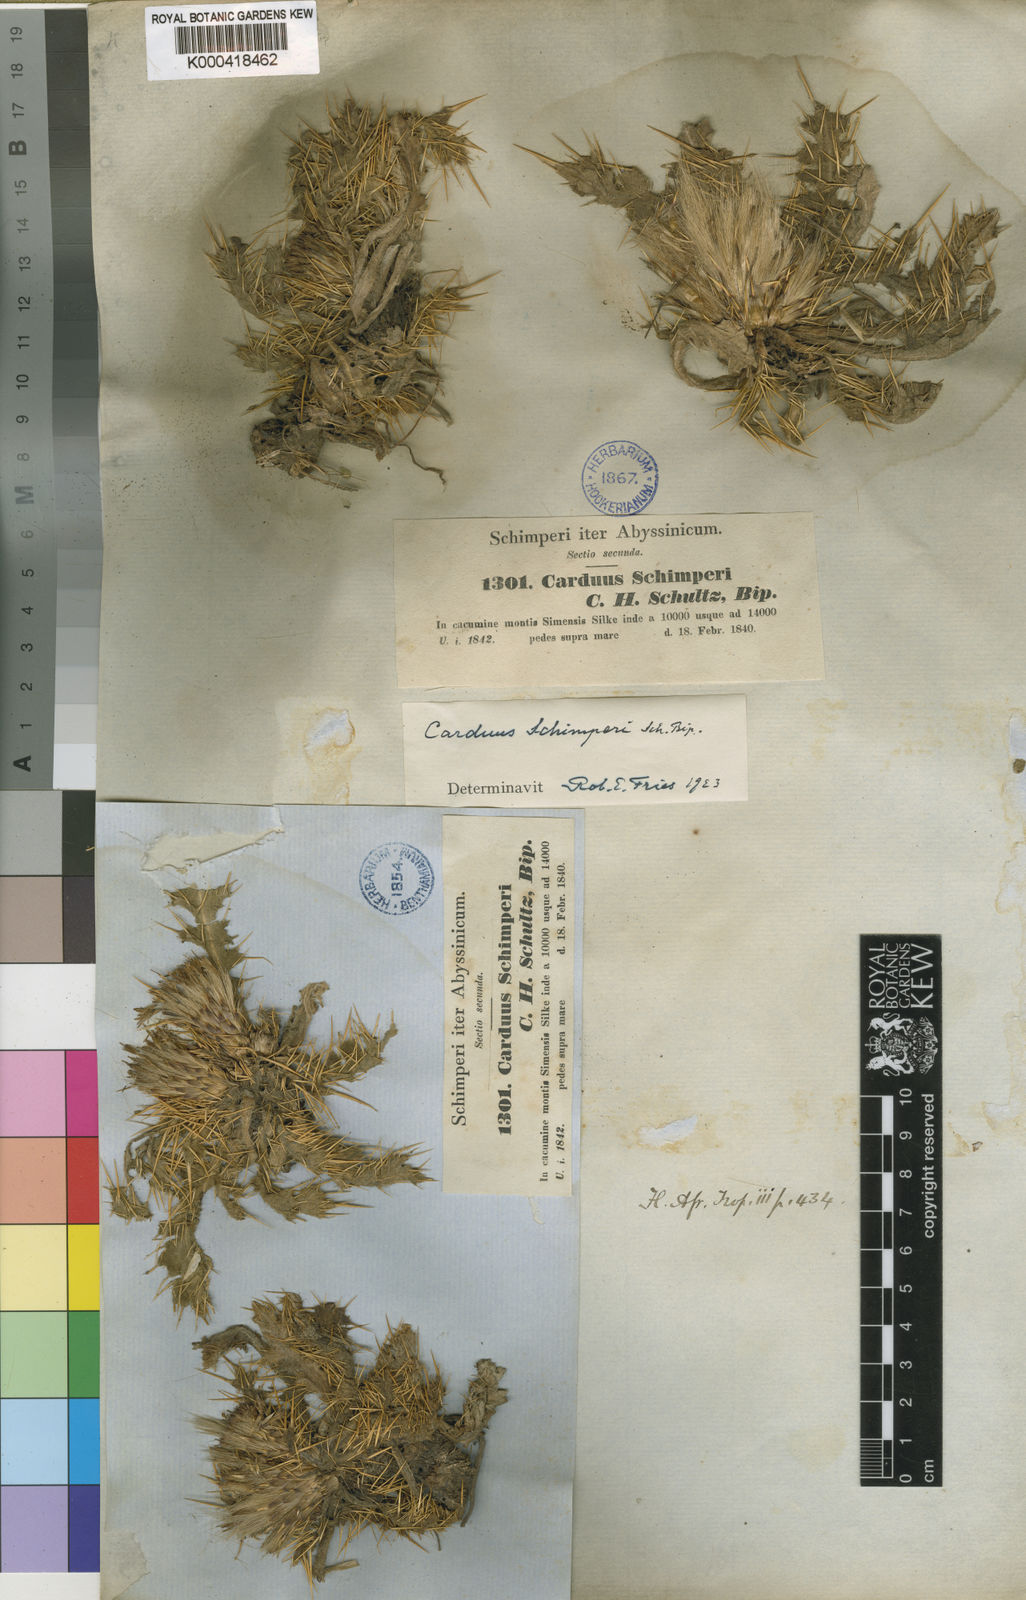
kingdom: Plantae
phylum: Tracheophyta
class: Magnoliopsida
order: Asterales
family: Asteraceae
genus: Carduus
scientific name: Carduus schimperi
